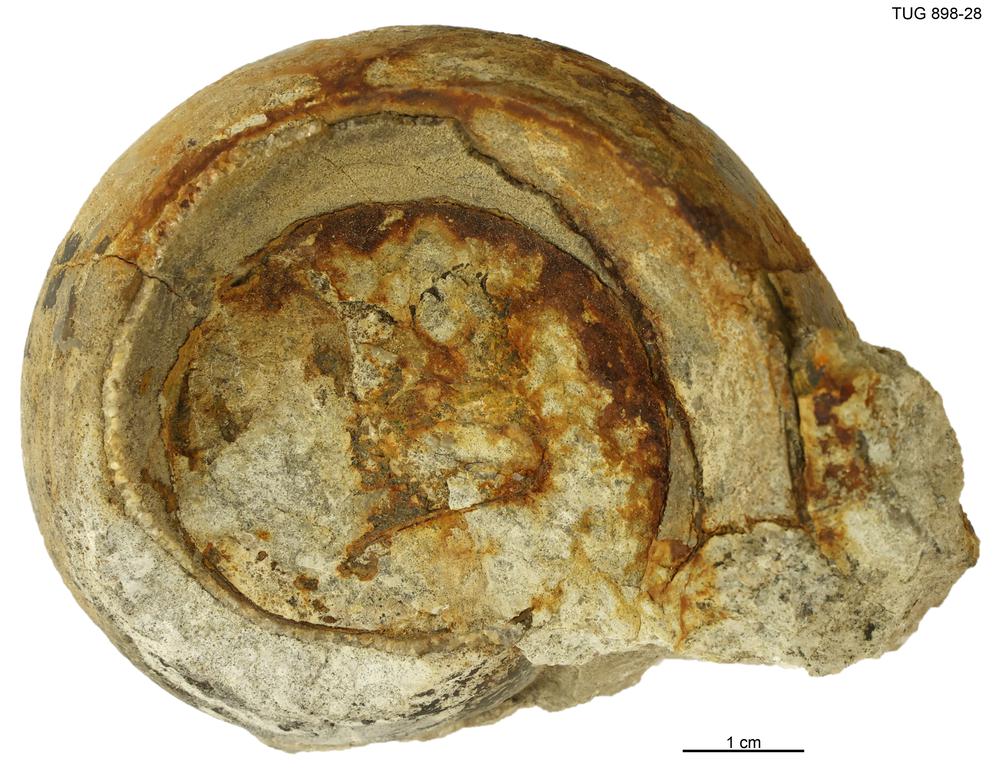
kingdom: Animalia
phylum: Mollusca
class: Gastropoda
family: Lesueurillidae
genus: Lesueurilla
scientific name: Lesueurilla Maclurea infundibulum
